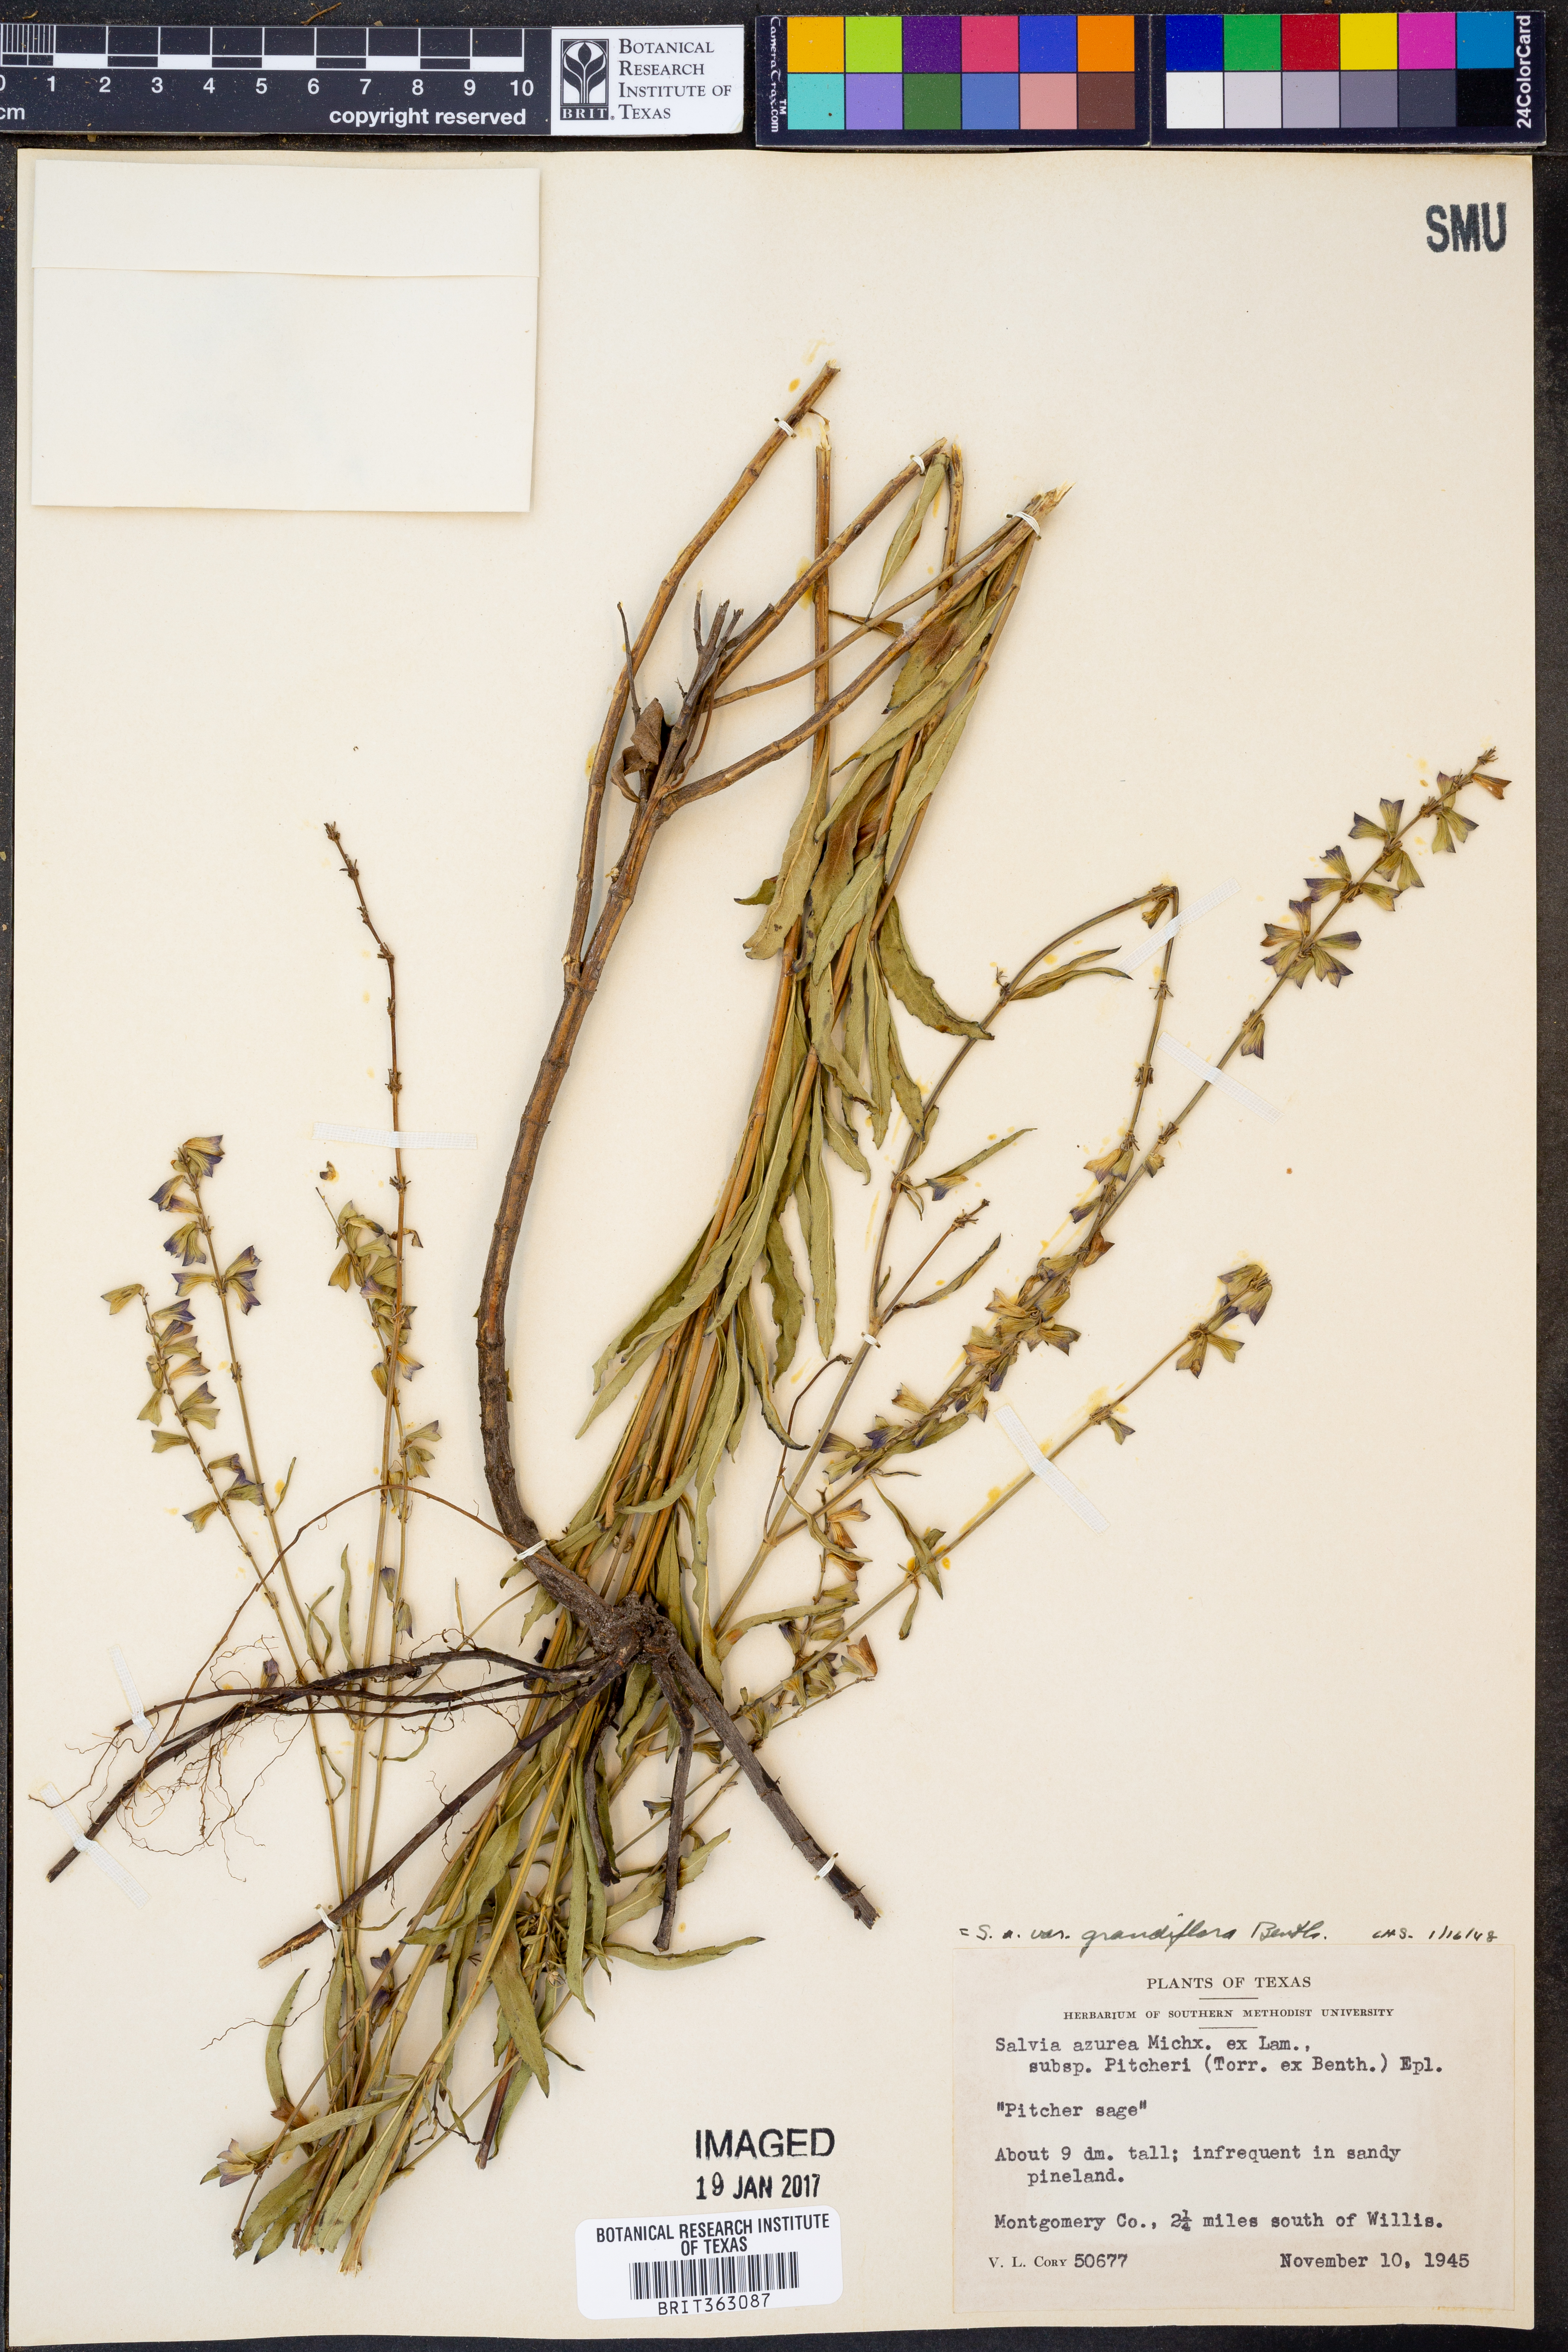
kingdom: Plantae
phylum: Tracheophyta
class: Magnoliopsida
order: Lamiales
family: Lamiaceae
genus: Salvia
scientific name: Salvia azurea
